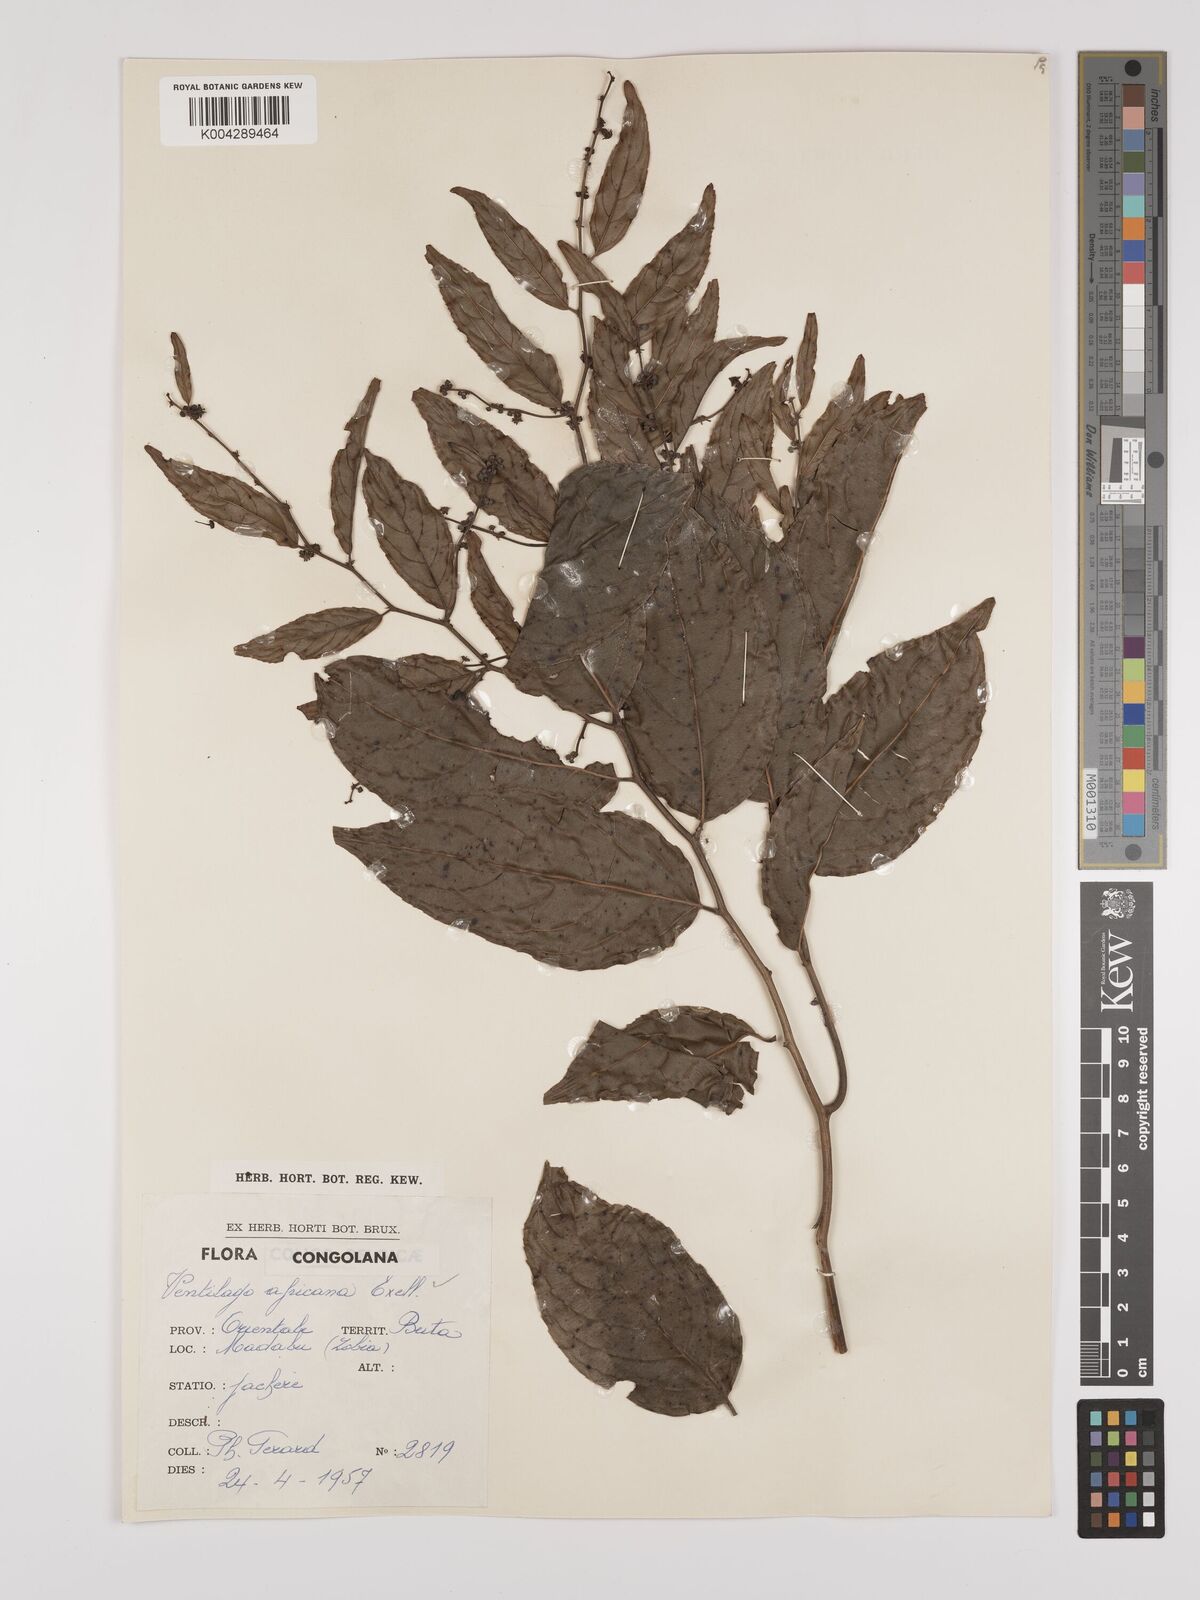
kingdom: Plantae
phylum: Tracheophyta
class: Magnoliopsida
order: Rosales
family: Rhamnaceae
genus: Ventilago
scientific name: Ventilago africana
